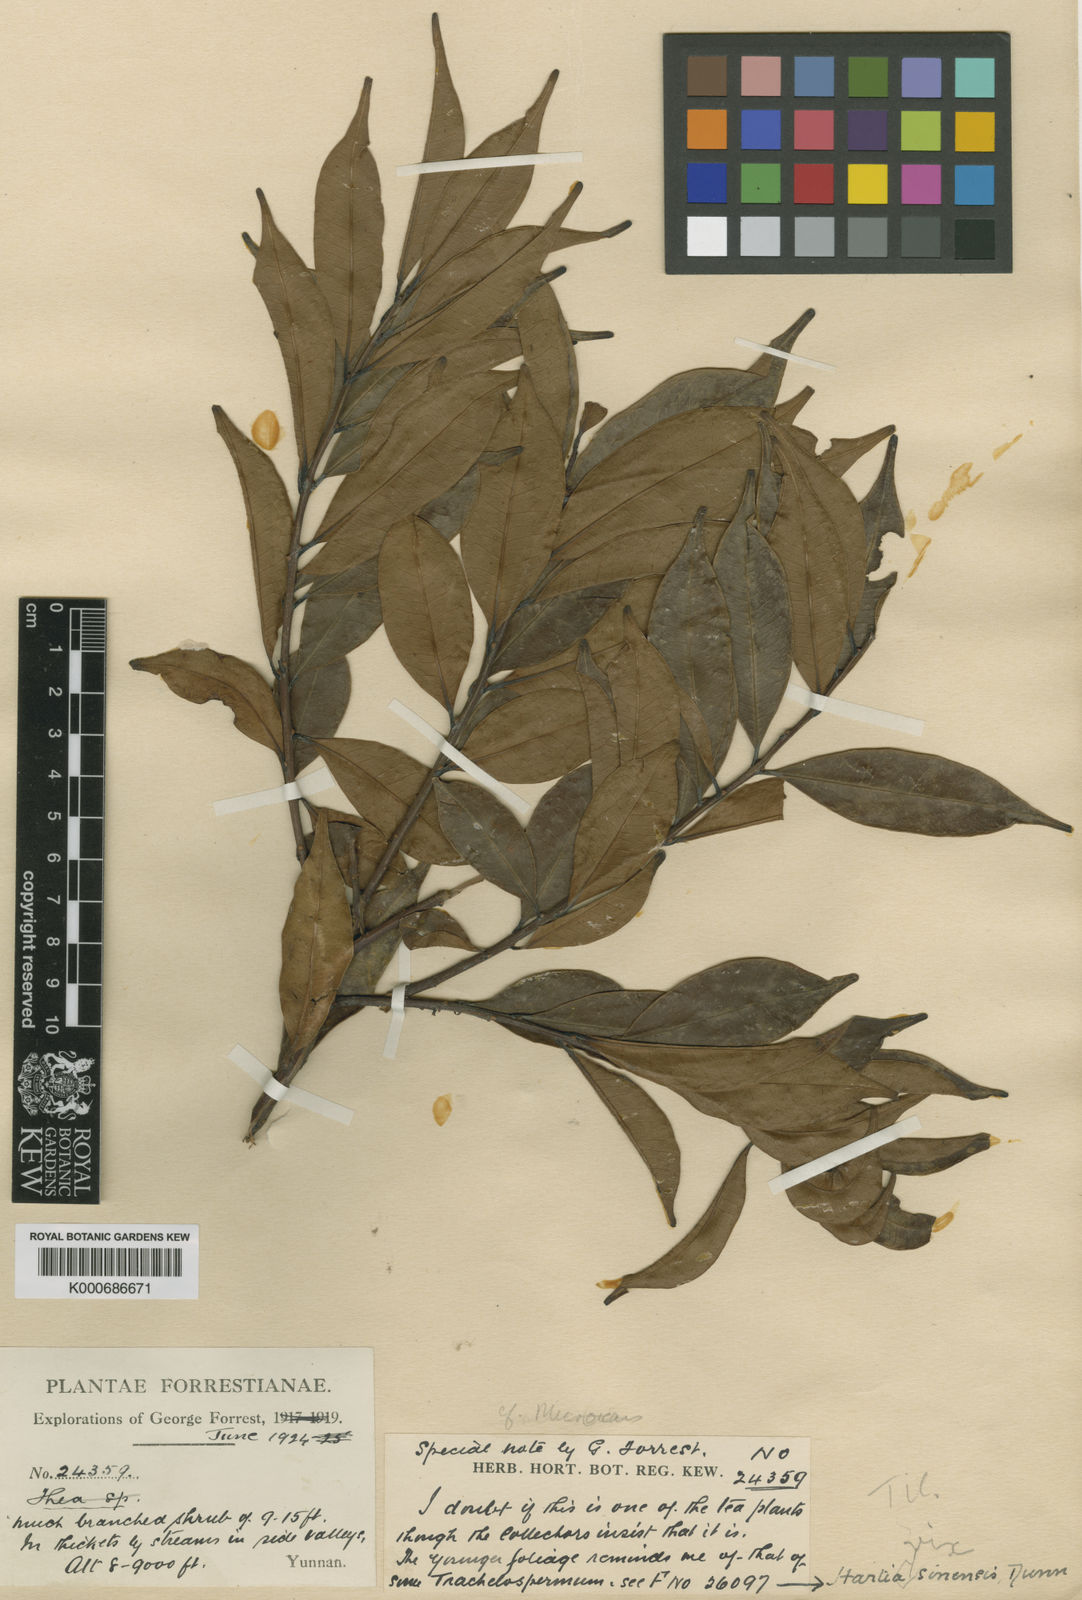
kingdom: Plantae
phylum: Tracheophyta
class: Magnoliopsida
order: Malvales
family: Malvaceae
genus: Microcos
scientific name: Microcos
